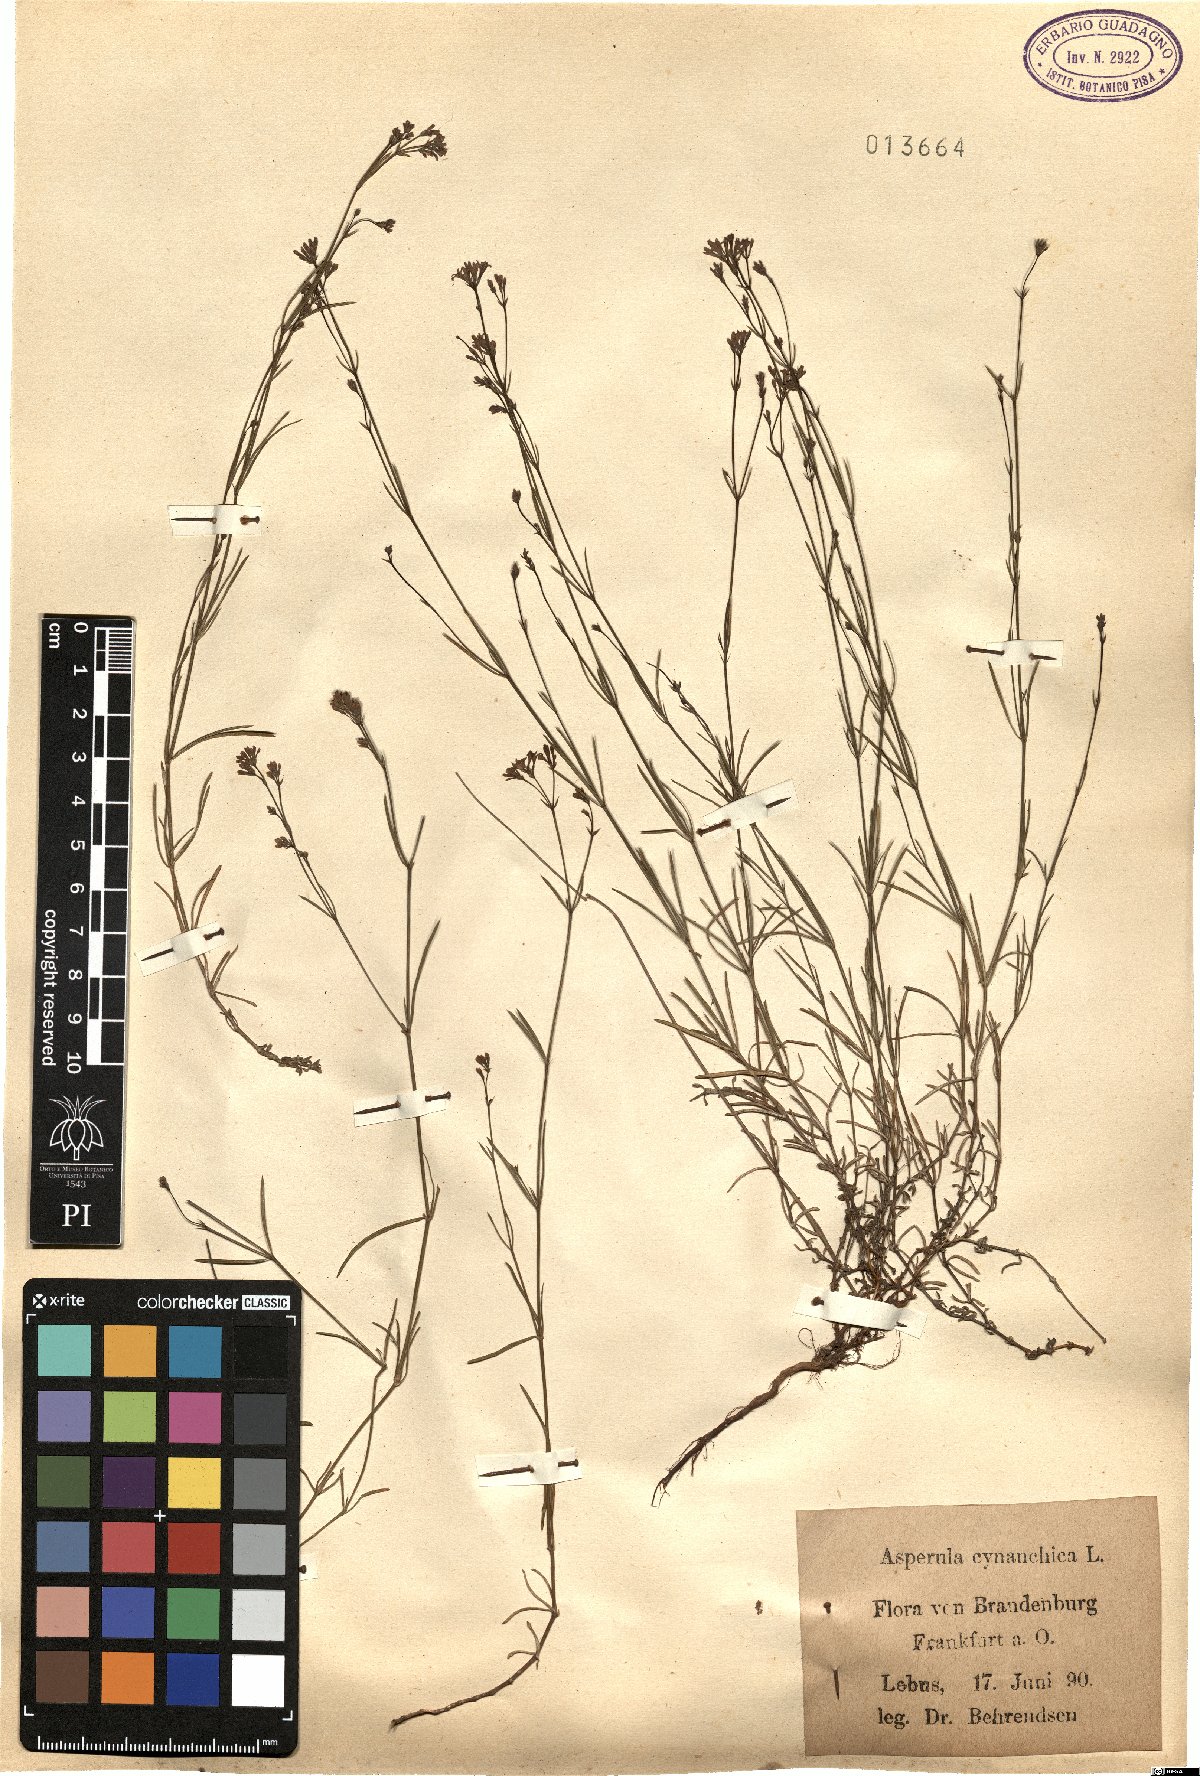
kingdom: Plantae
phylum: Tracheophyta
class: Magnoliopsida
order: Gentianales
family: Rubiaceae
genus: Cynanchica
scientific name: Cynanchica pyrenaica
